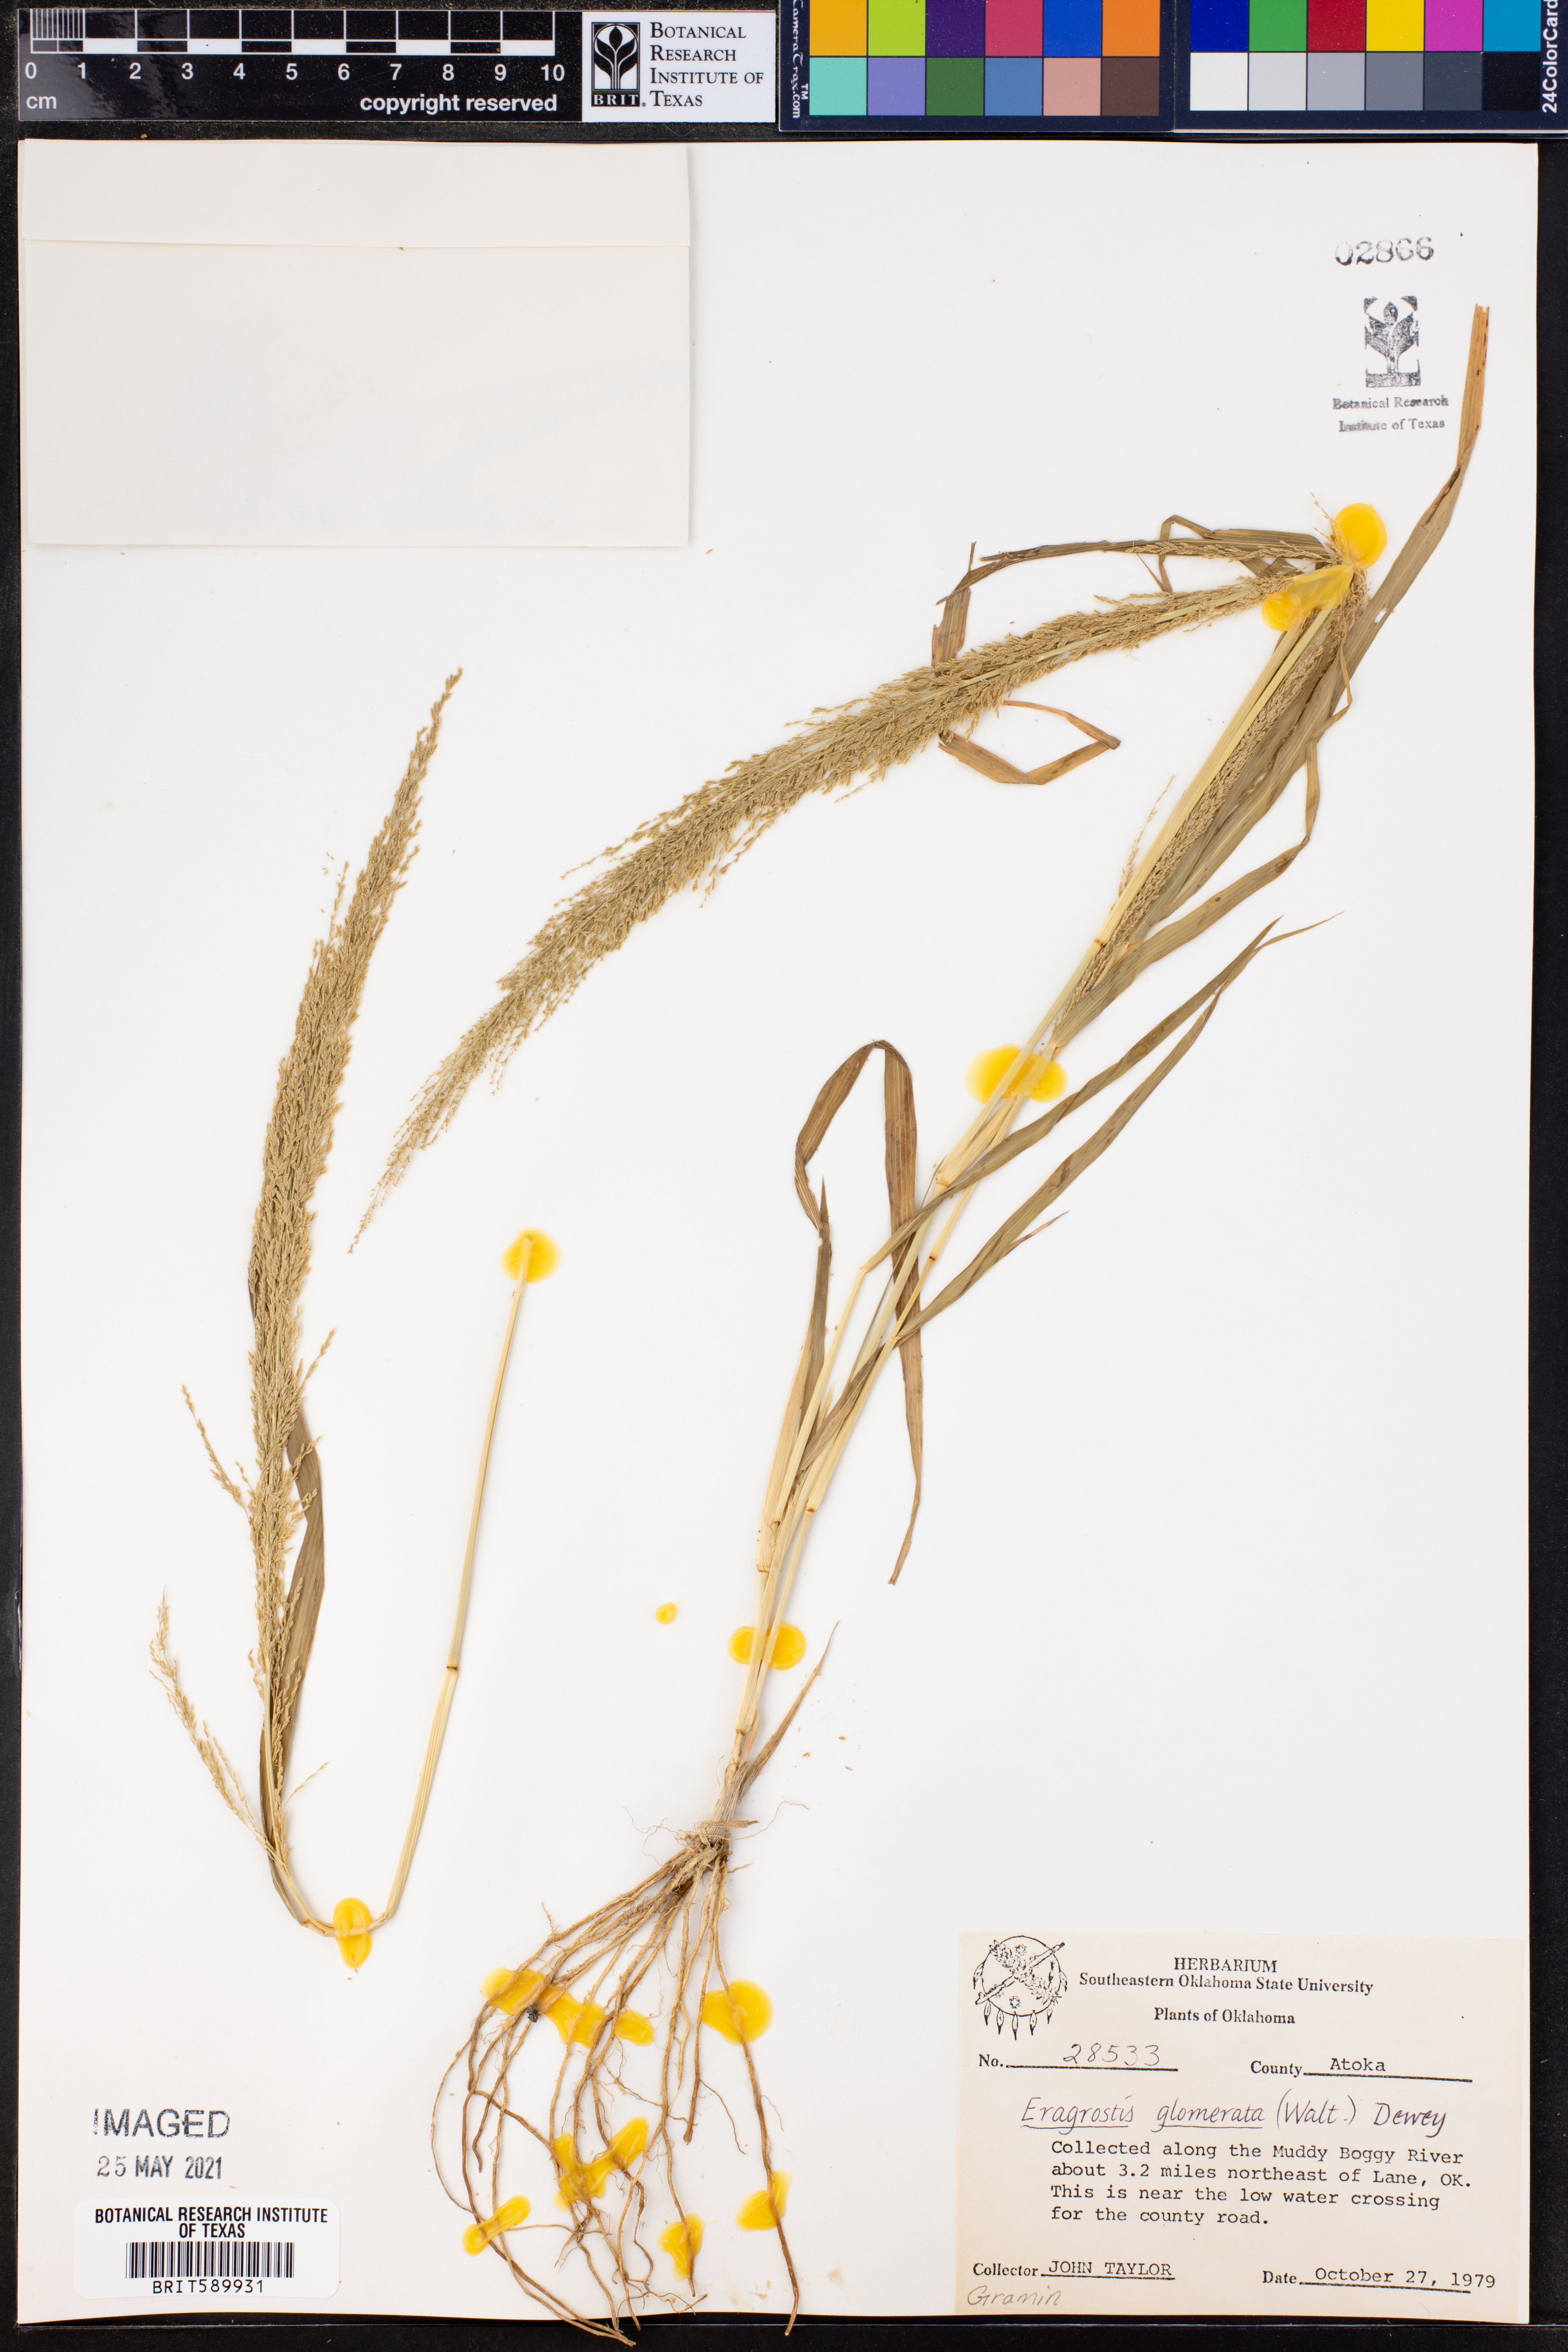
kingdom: Plantae
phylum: Tracheophyta
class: Liliopsida
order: Poales
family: Poaceae
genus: Eragrostis
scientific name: Eragrostis japonica
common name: Pond lovegrass
